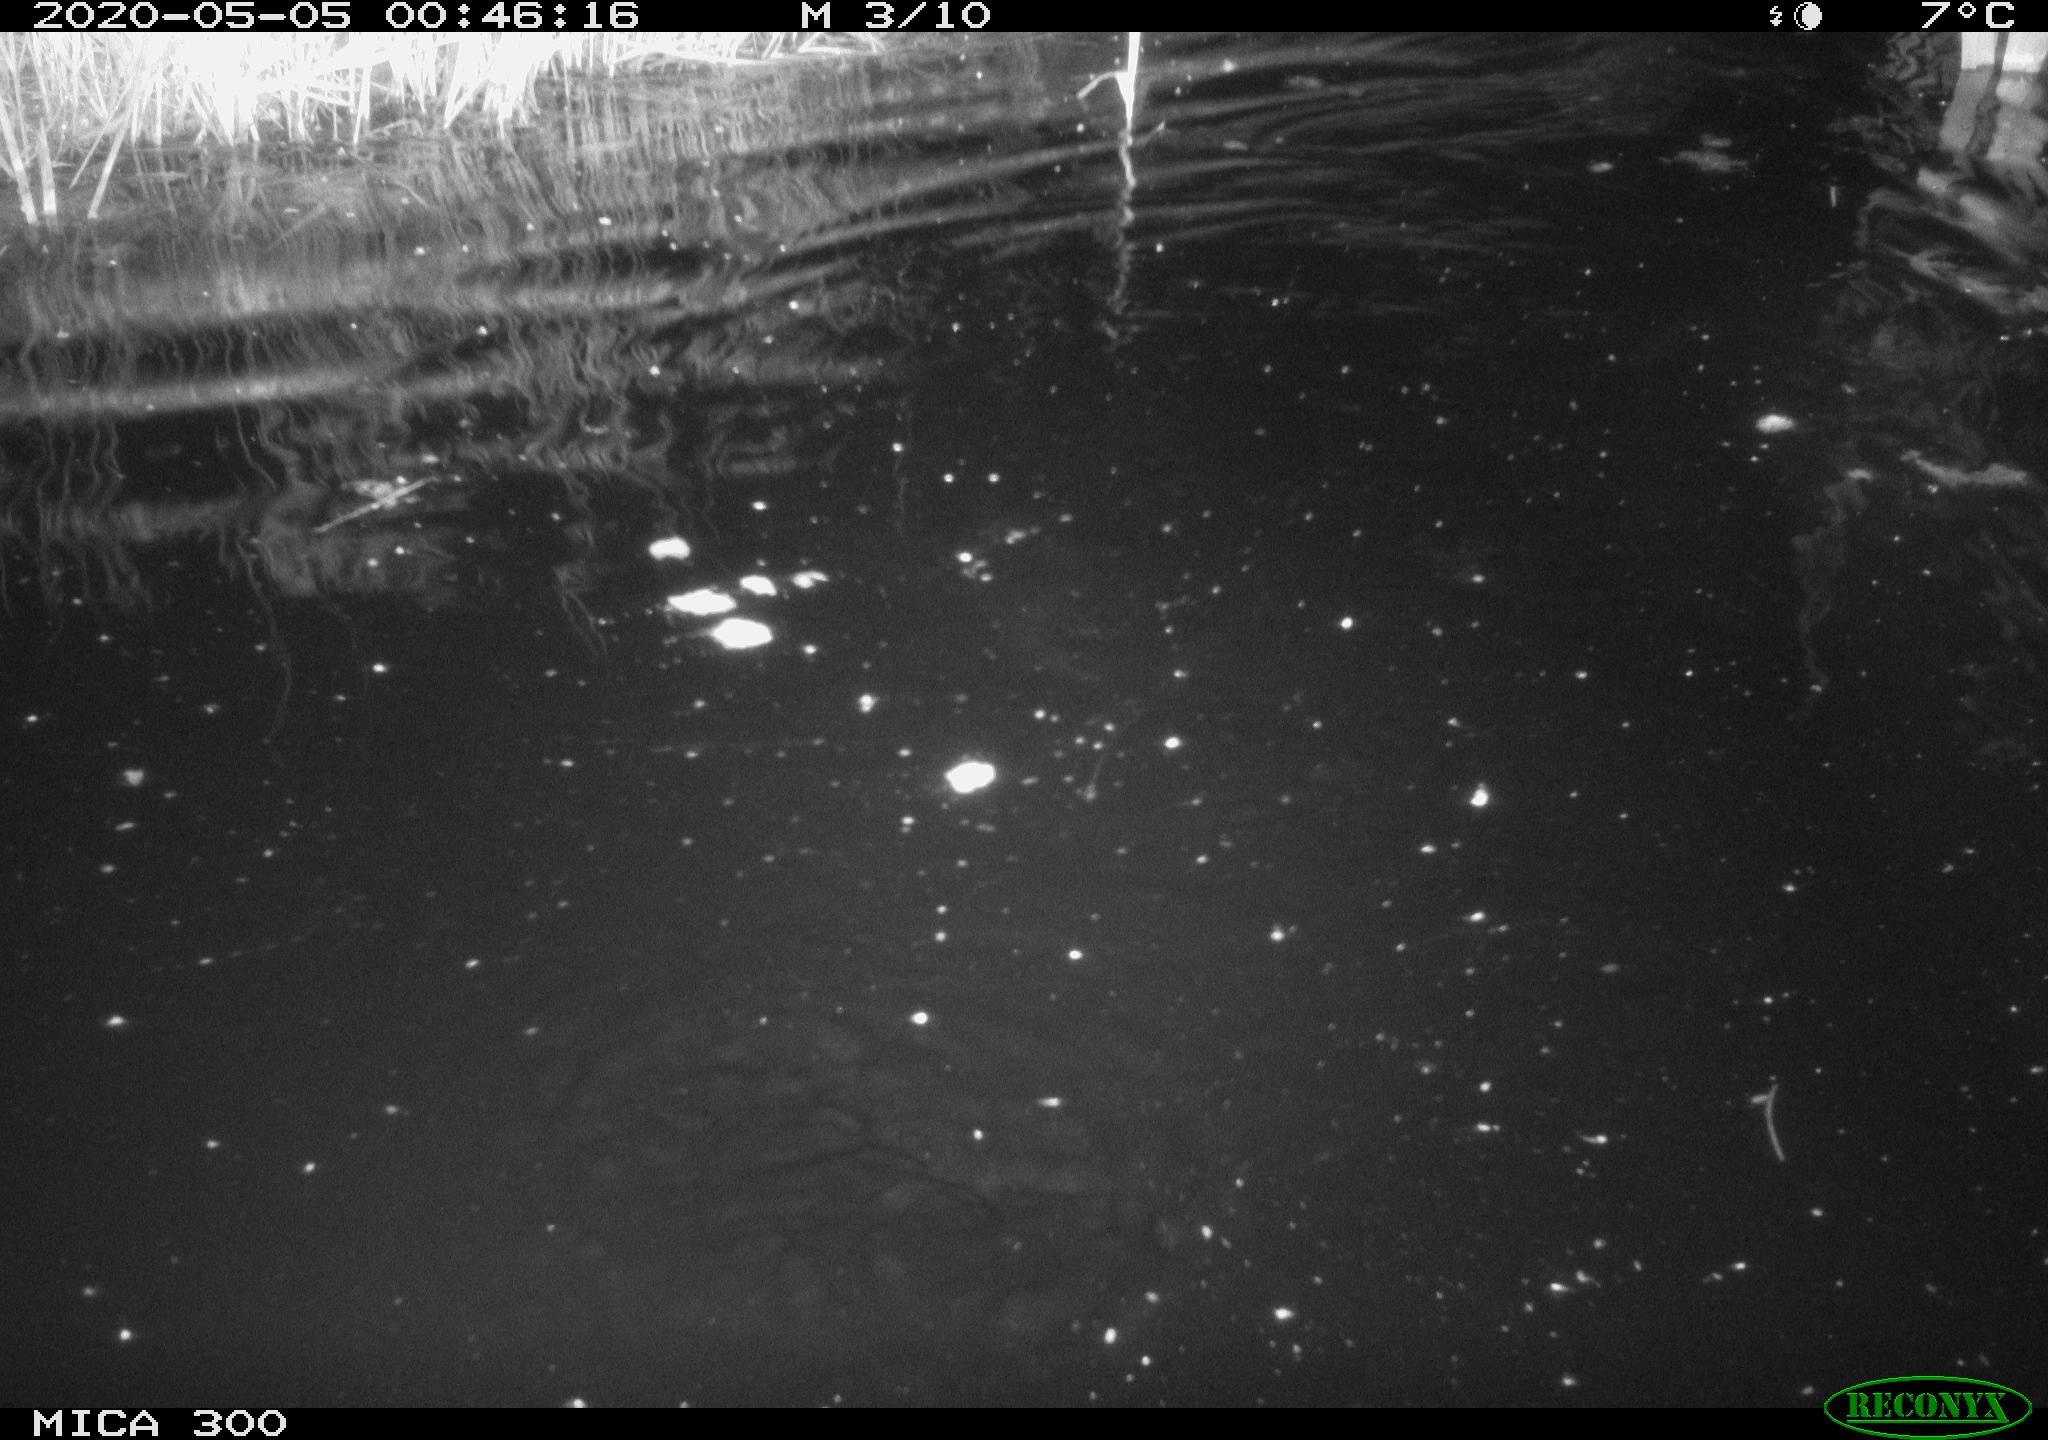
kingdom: Animalia
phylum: Chordata
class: Mammalia
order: Rodentia
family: Castoridae
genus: Castor
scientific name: Castor fiber
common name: Eurasian beaver
